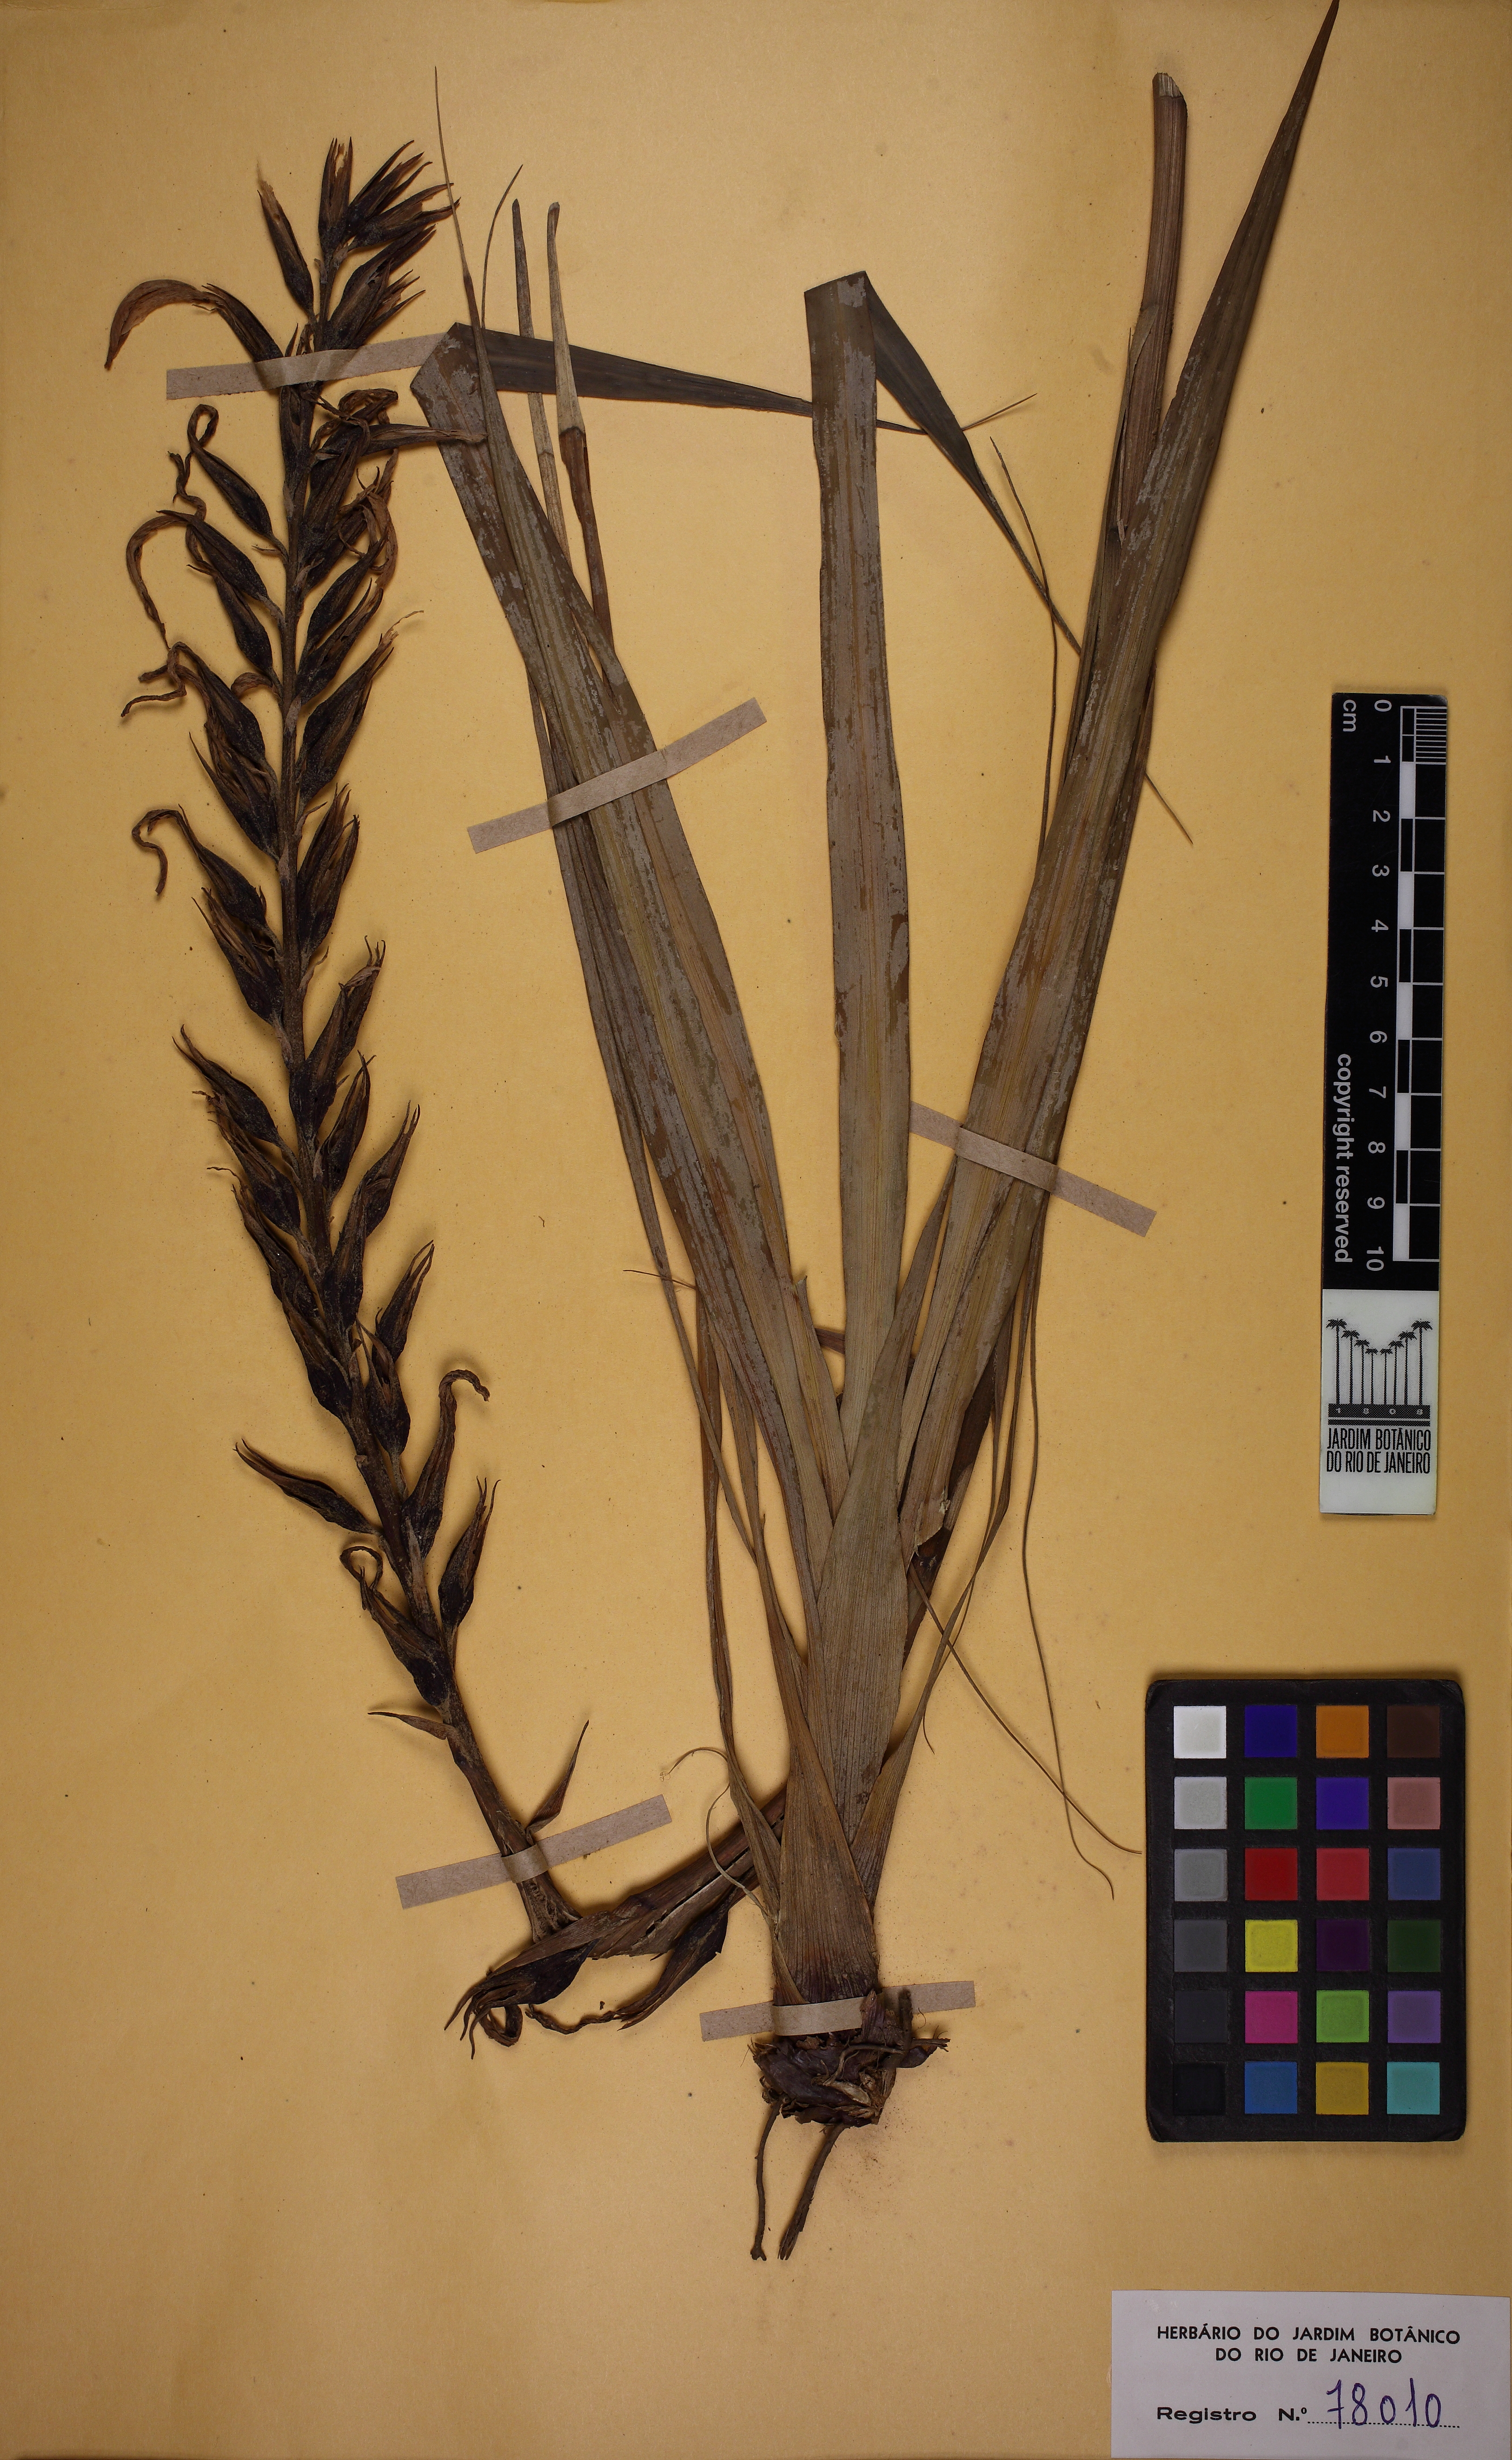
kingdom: Plantae
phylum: Tracheophyta
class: Liliopsida
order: Poales
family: Bromeliaceae
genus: Pitcairnia
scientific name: Pitcairnia caricifolia
